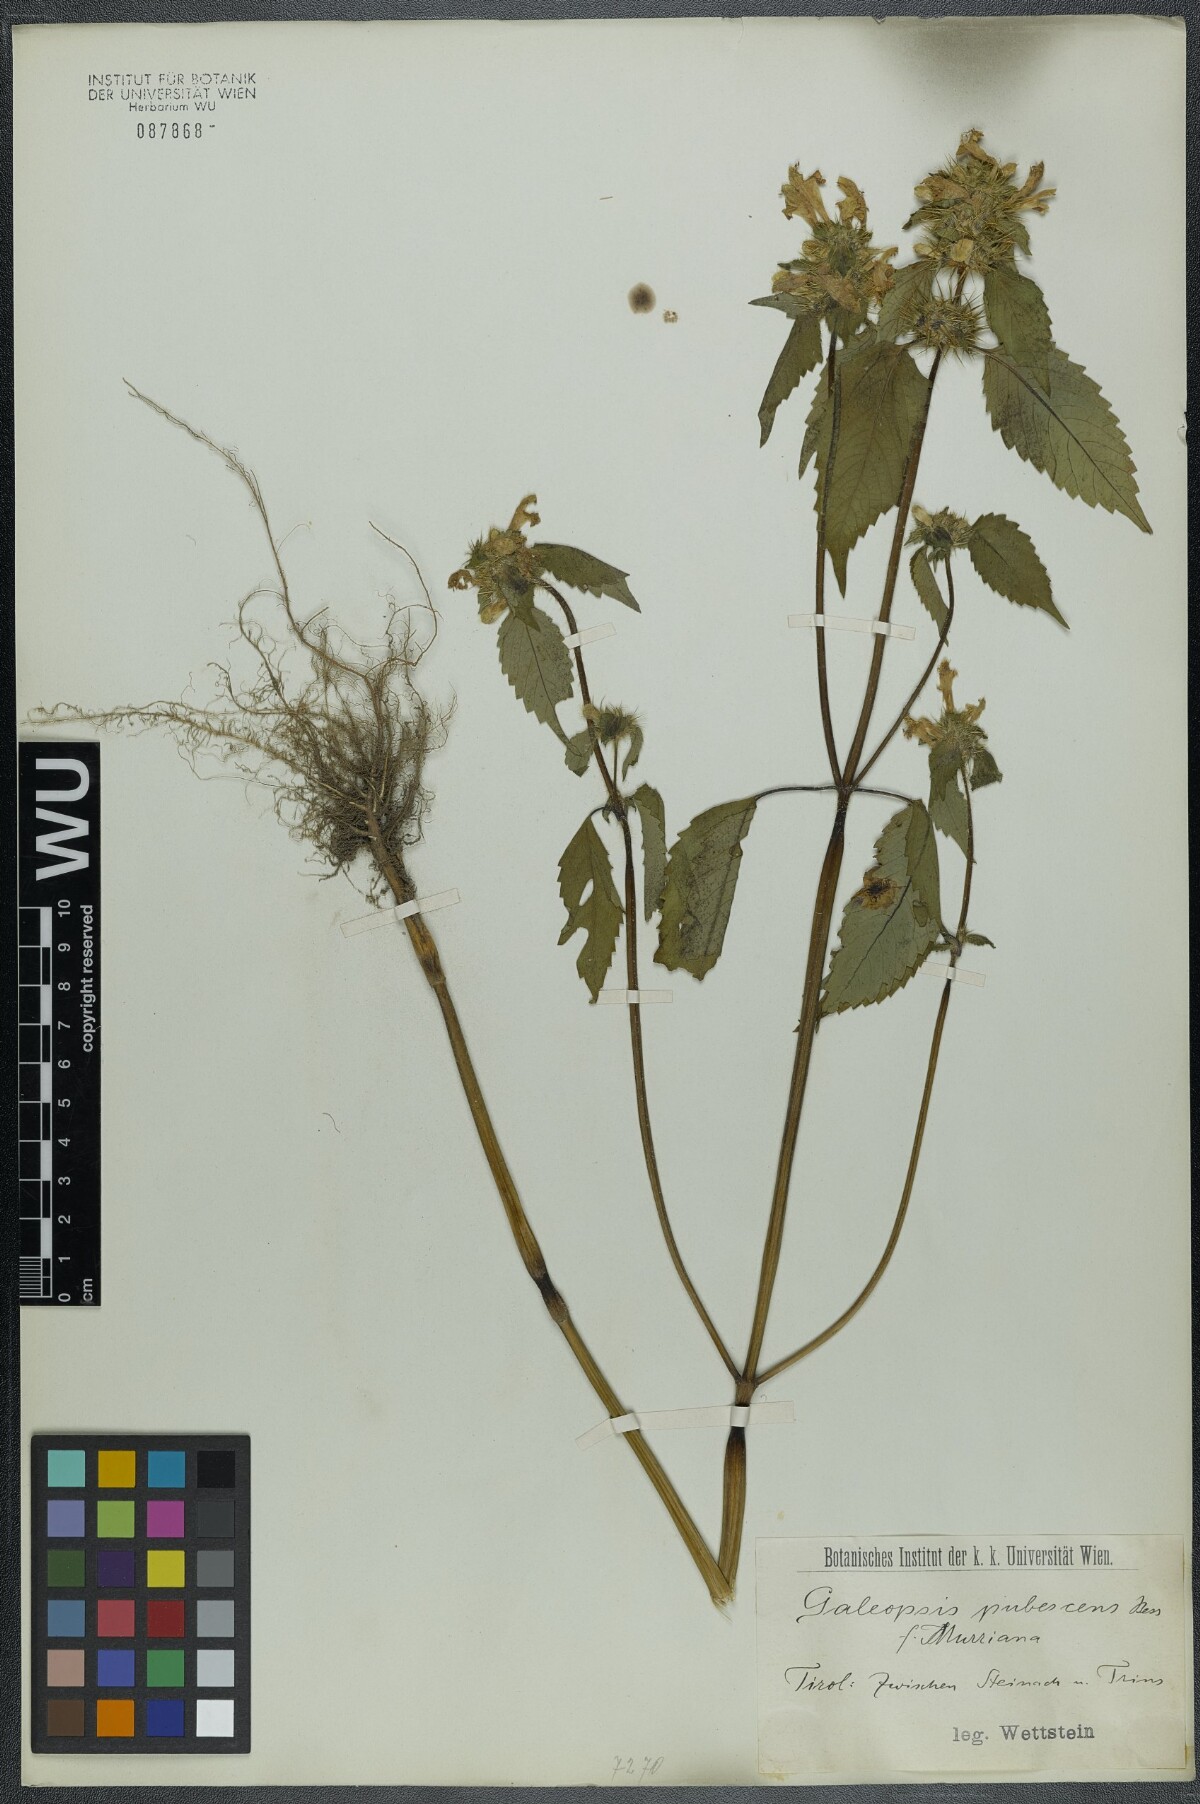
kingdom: Plantae
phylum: Tracheophyta
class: Magnoliopsida
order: Lamiales
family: Lamiaceae
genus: Galeopsis
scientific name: Galeopsis pubescens
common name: Downy hemp-nettle
